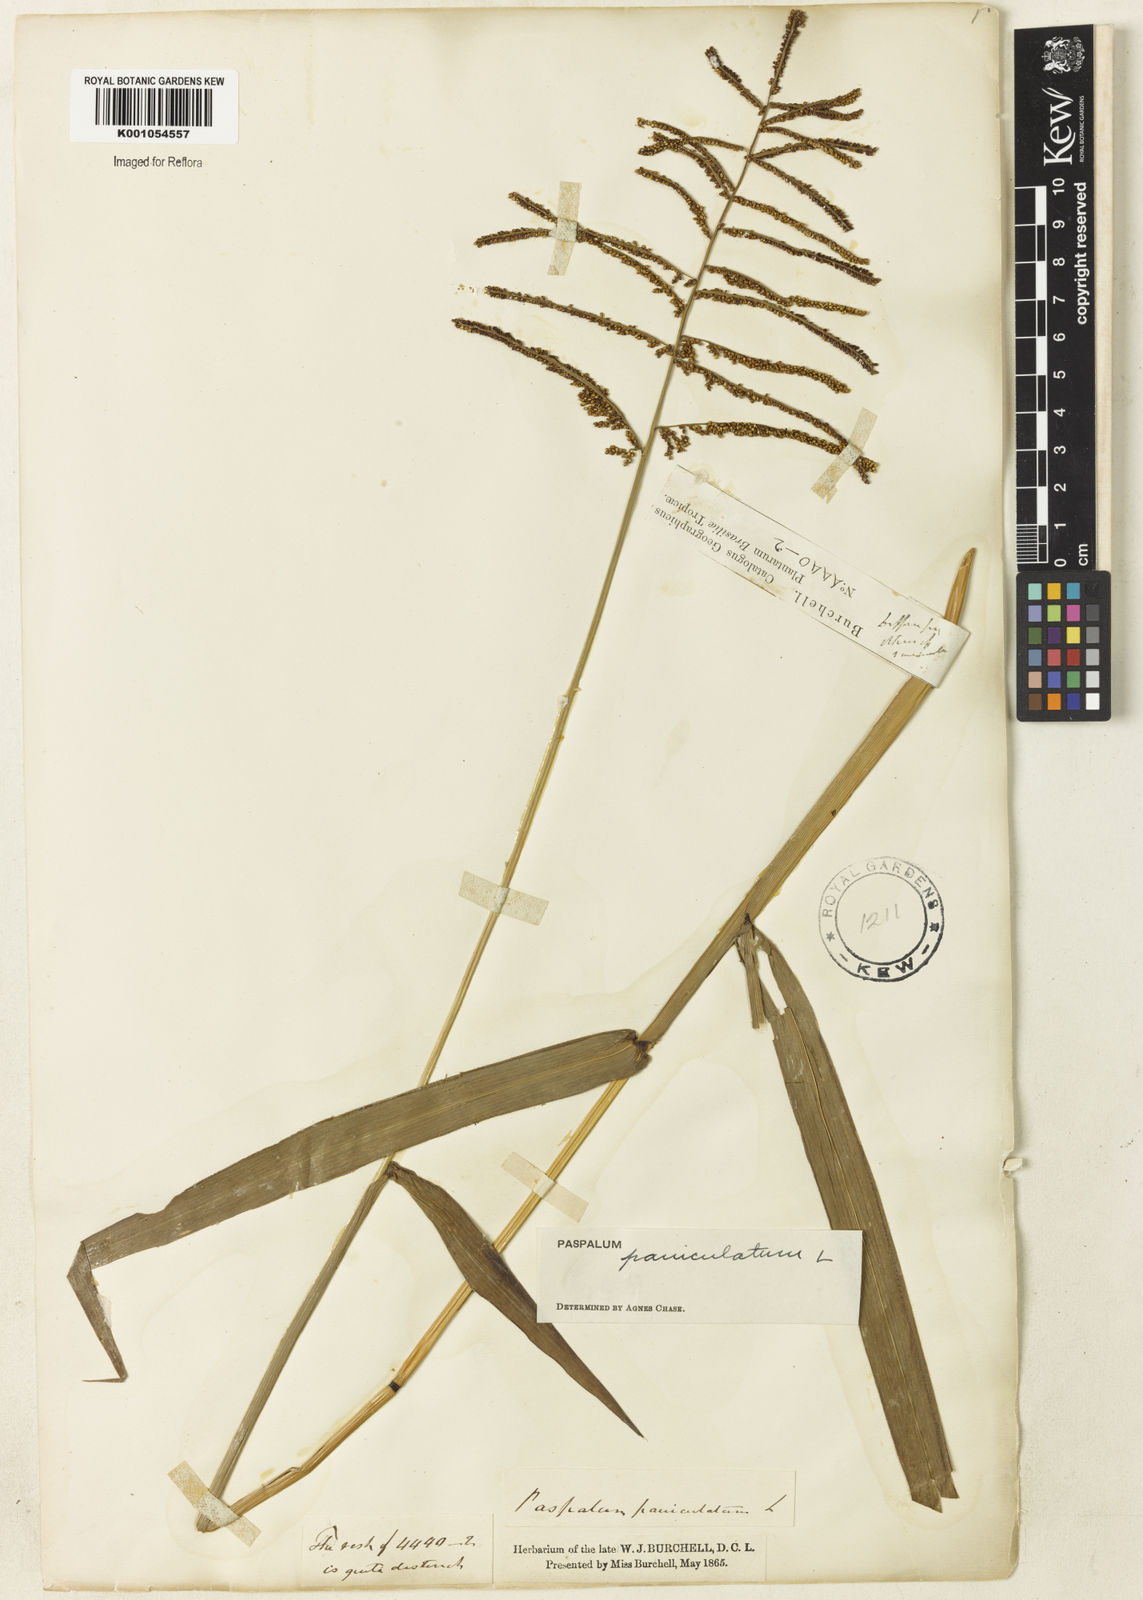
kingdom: Plantae
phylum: Tracheophyta
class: Liliopsida
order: Poales
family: Poaceae
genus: Paspalum
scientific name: Paspalum paniculatum
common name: Arrocillo
